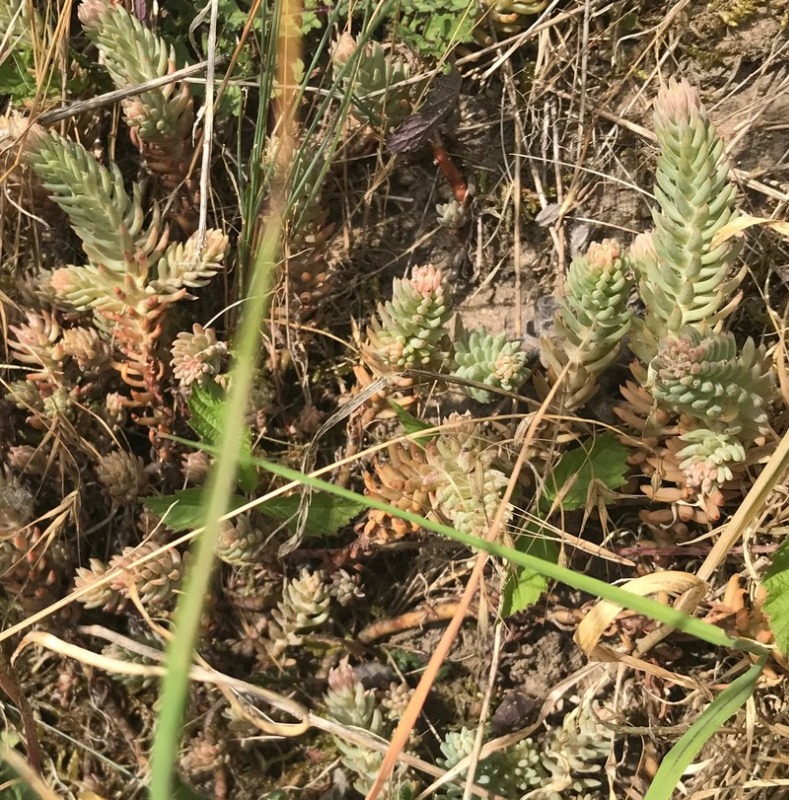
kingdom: Plantae
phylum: Tracheophyta
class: Magnoliopsida
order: Saxifragales
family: Crassulaceae
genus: Petrosedum
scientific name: Petrosedum rupestre
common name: Bjerg-stenurt
